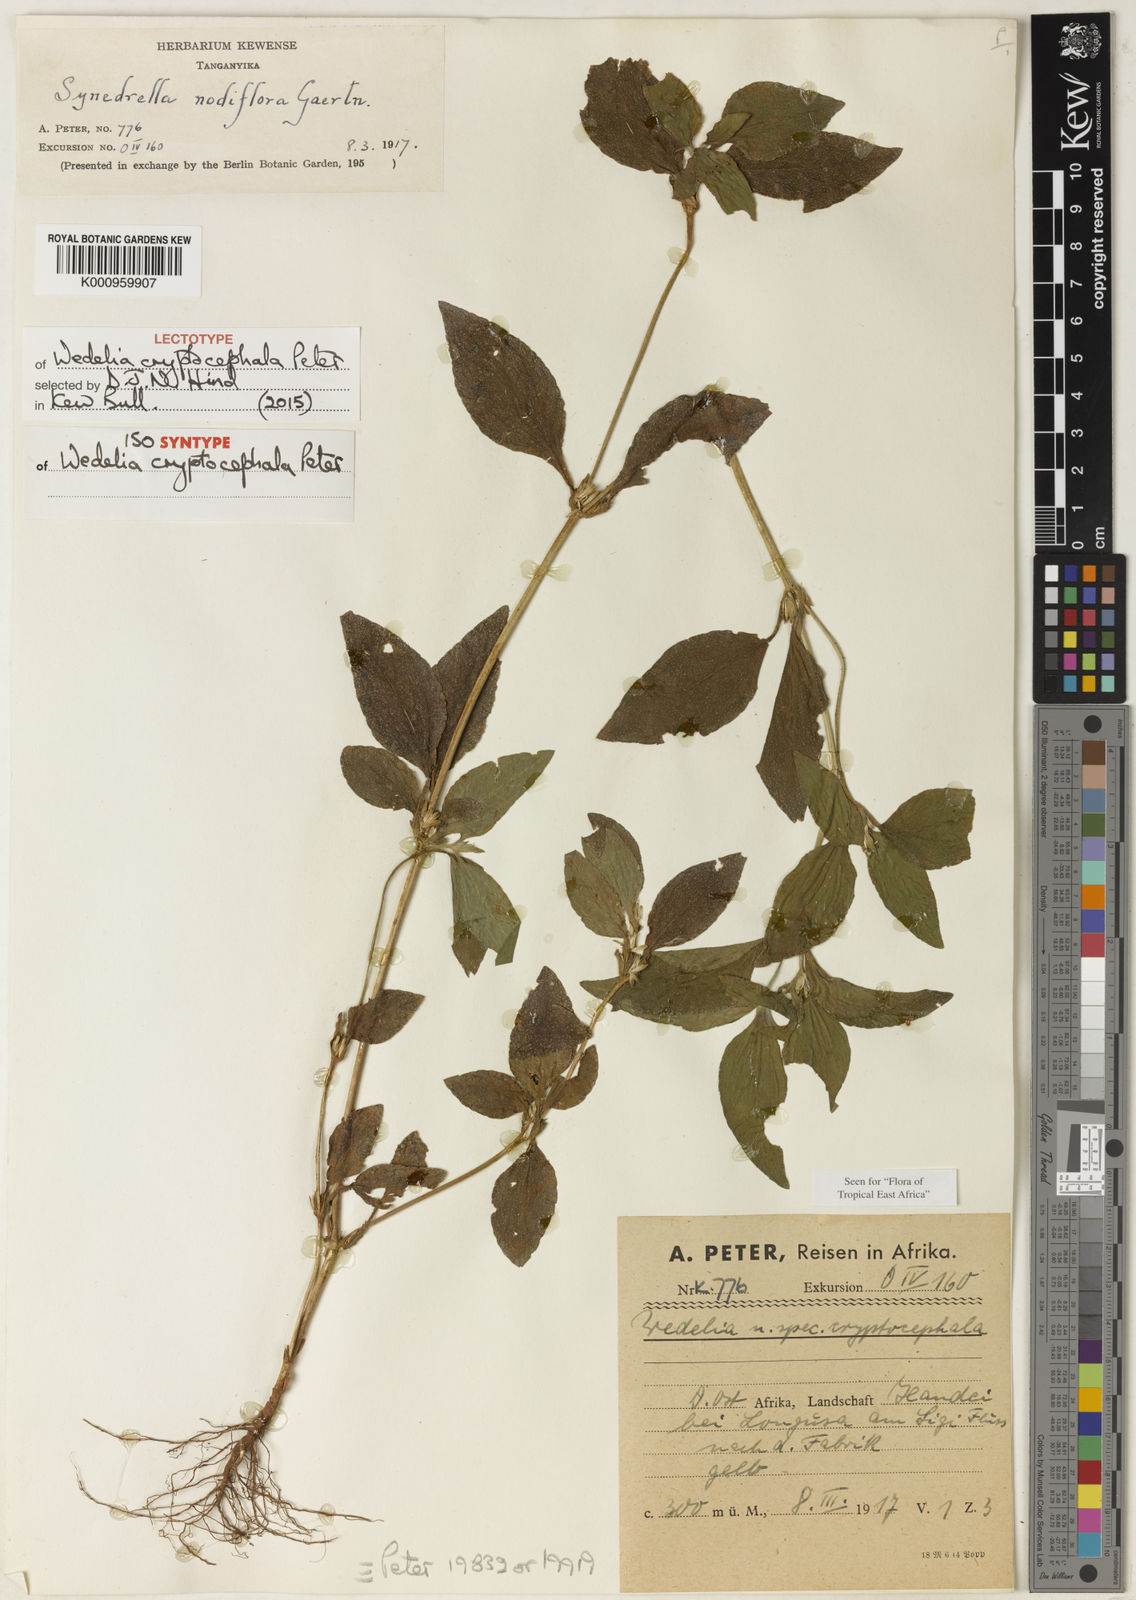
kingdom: Plantae
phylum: Tracheophyta
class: Magnoliopsida
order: Asterales
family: Asteraceae
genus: Synedrella
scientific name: Synedrella nodiflora
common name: Nodeweed
